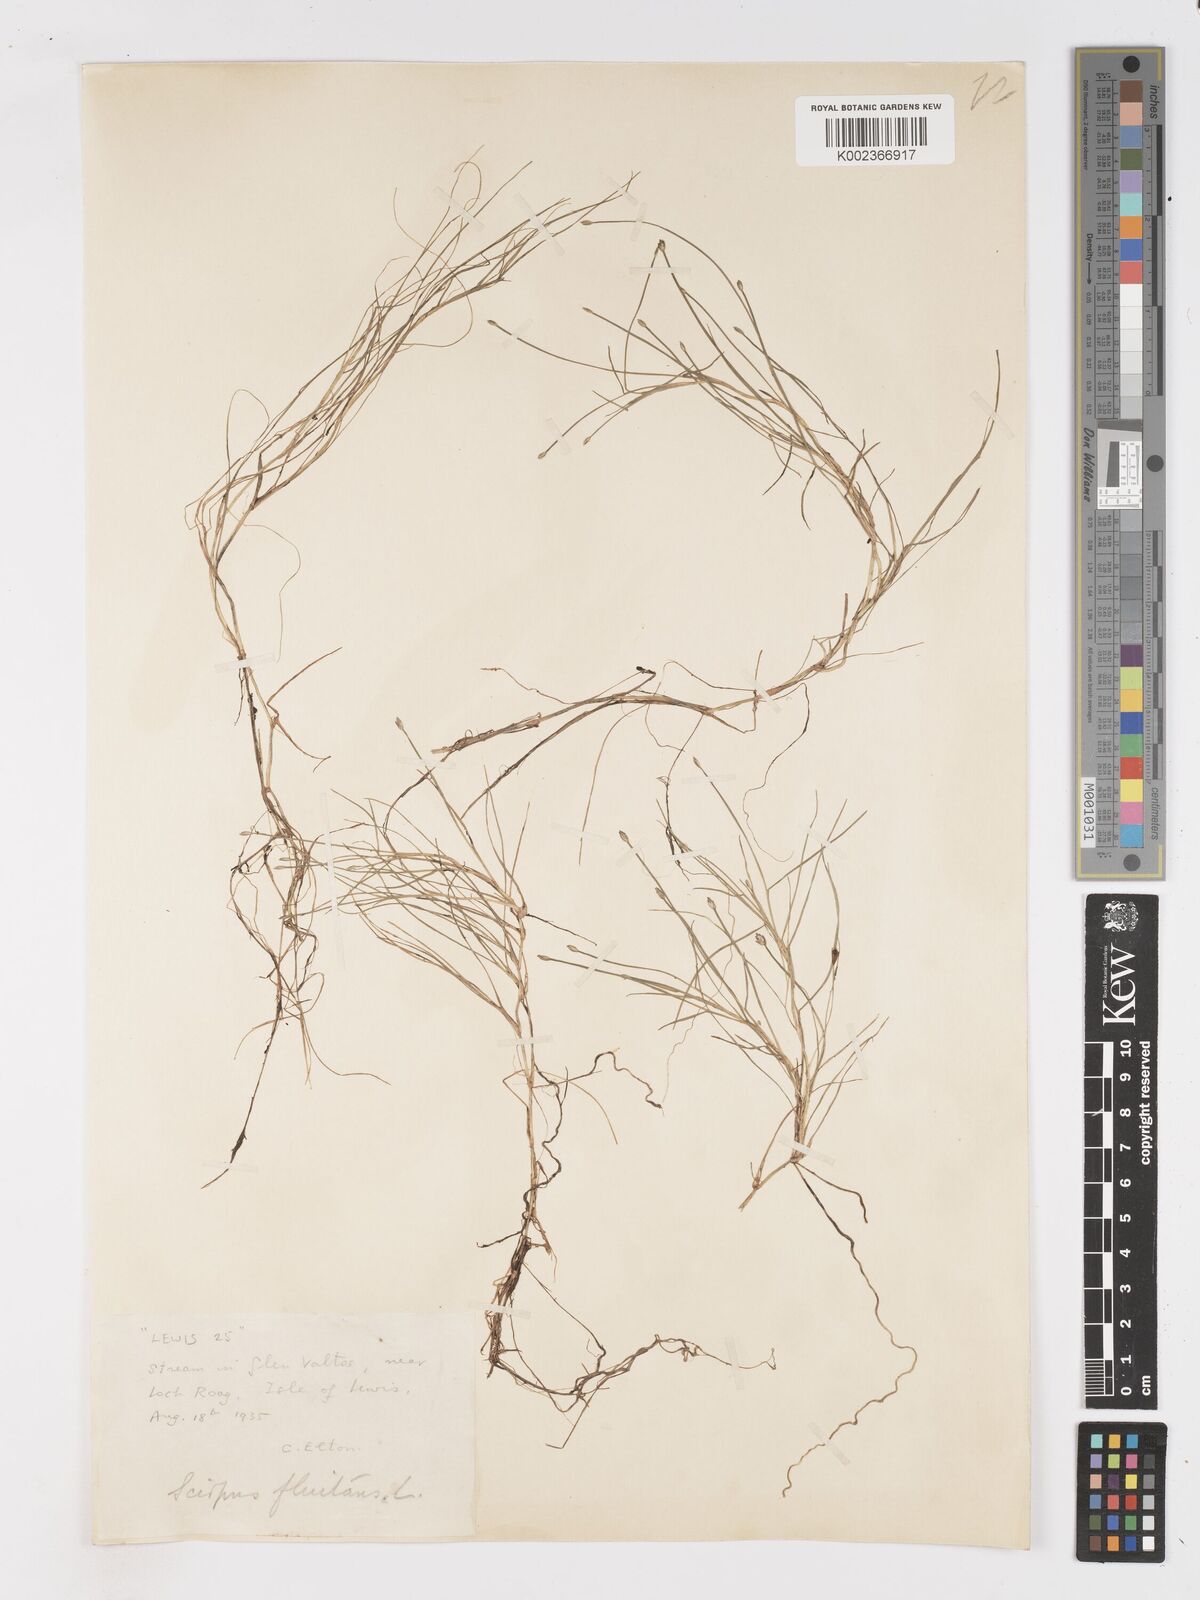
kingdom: Plantae
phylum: Tracheophyta
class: Liliopsida
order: Poales
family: Cyperaceae
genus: Isolepis
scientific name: Isolepis fluitans
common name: Floating club-rush
